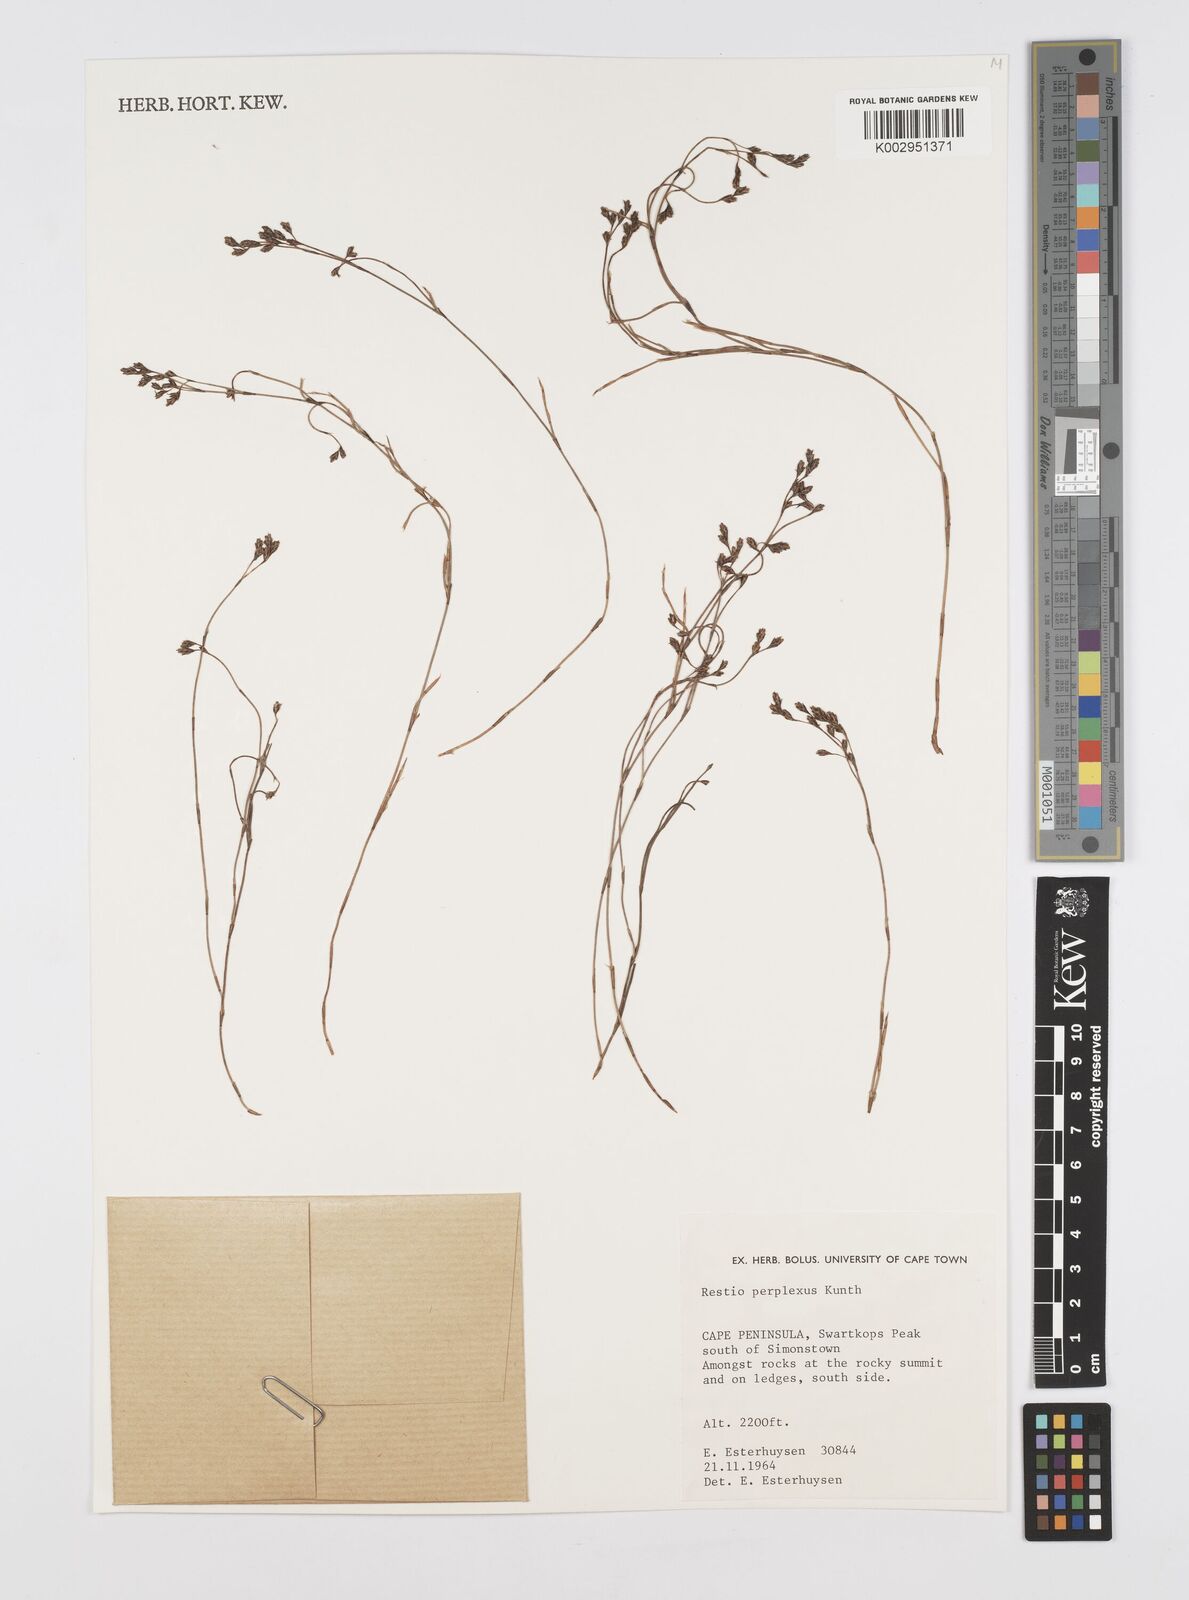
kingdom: Plantae
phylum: Tracheophyta
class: Liliopsida
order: Poales
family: Restionaceae
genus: Restio
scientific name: Restio perplexus
